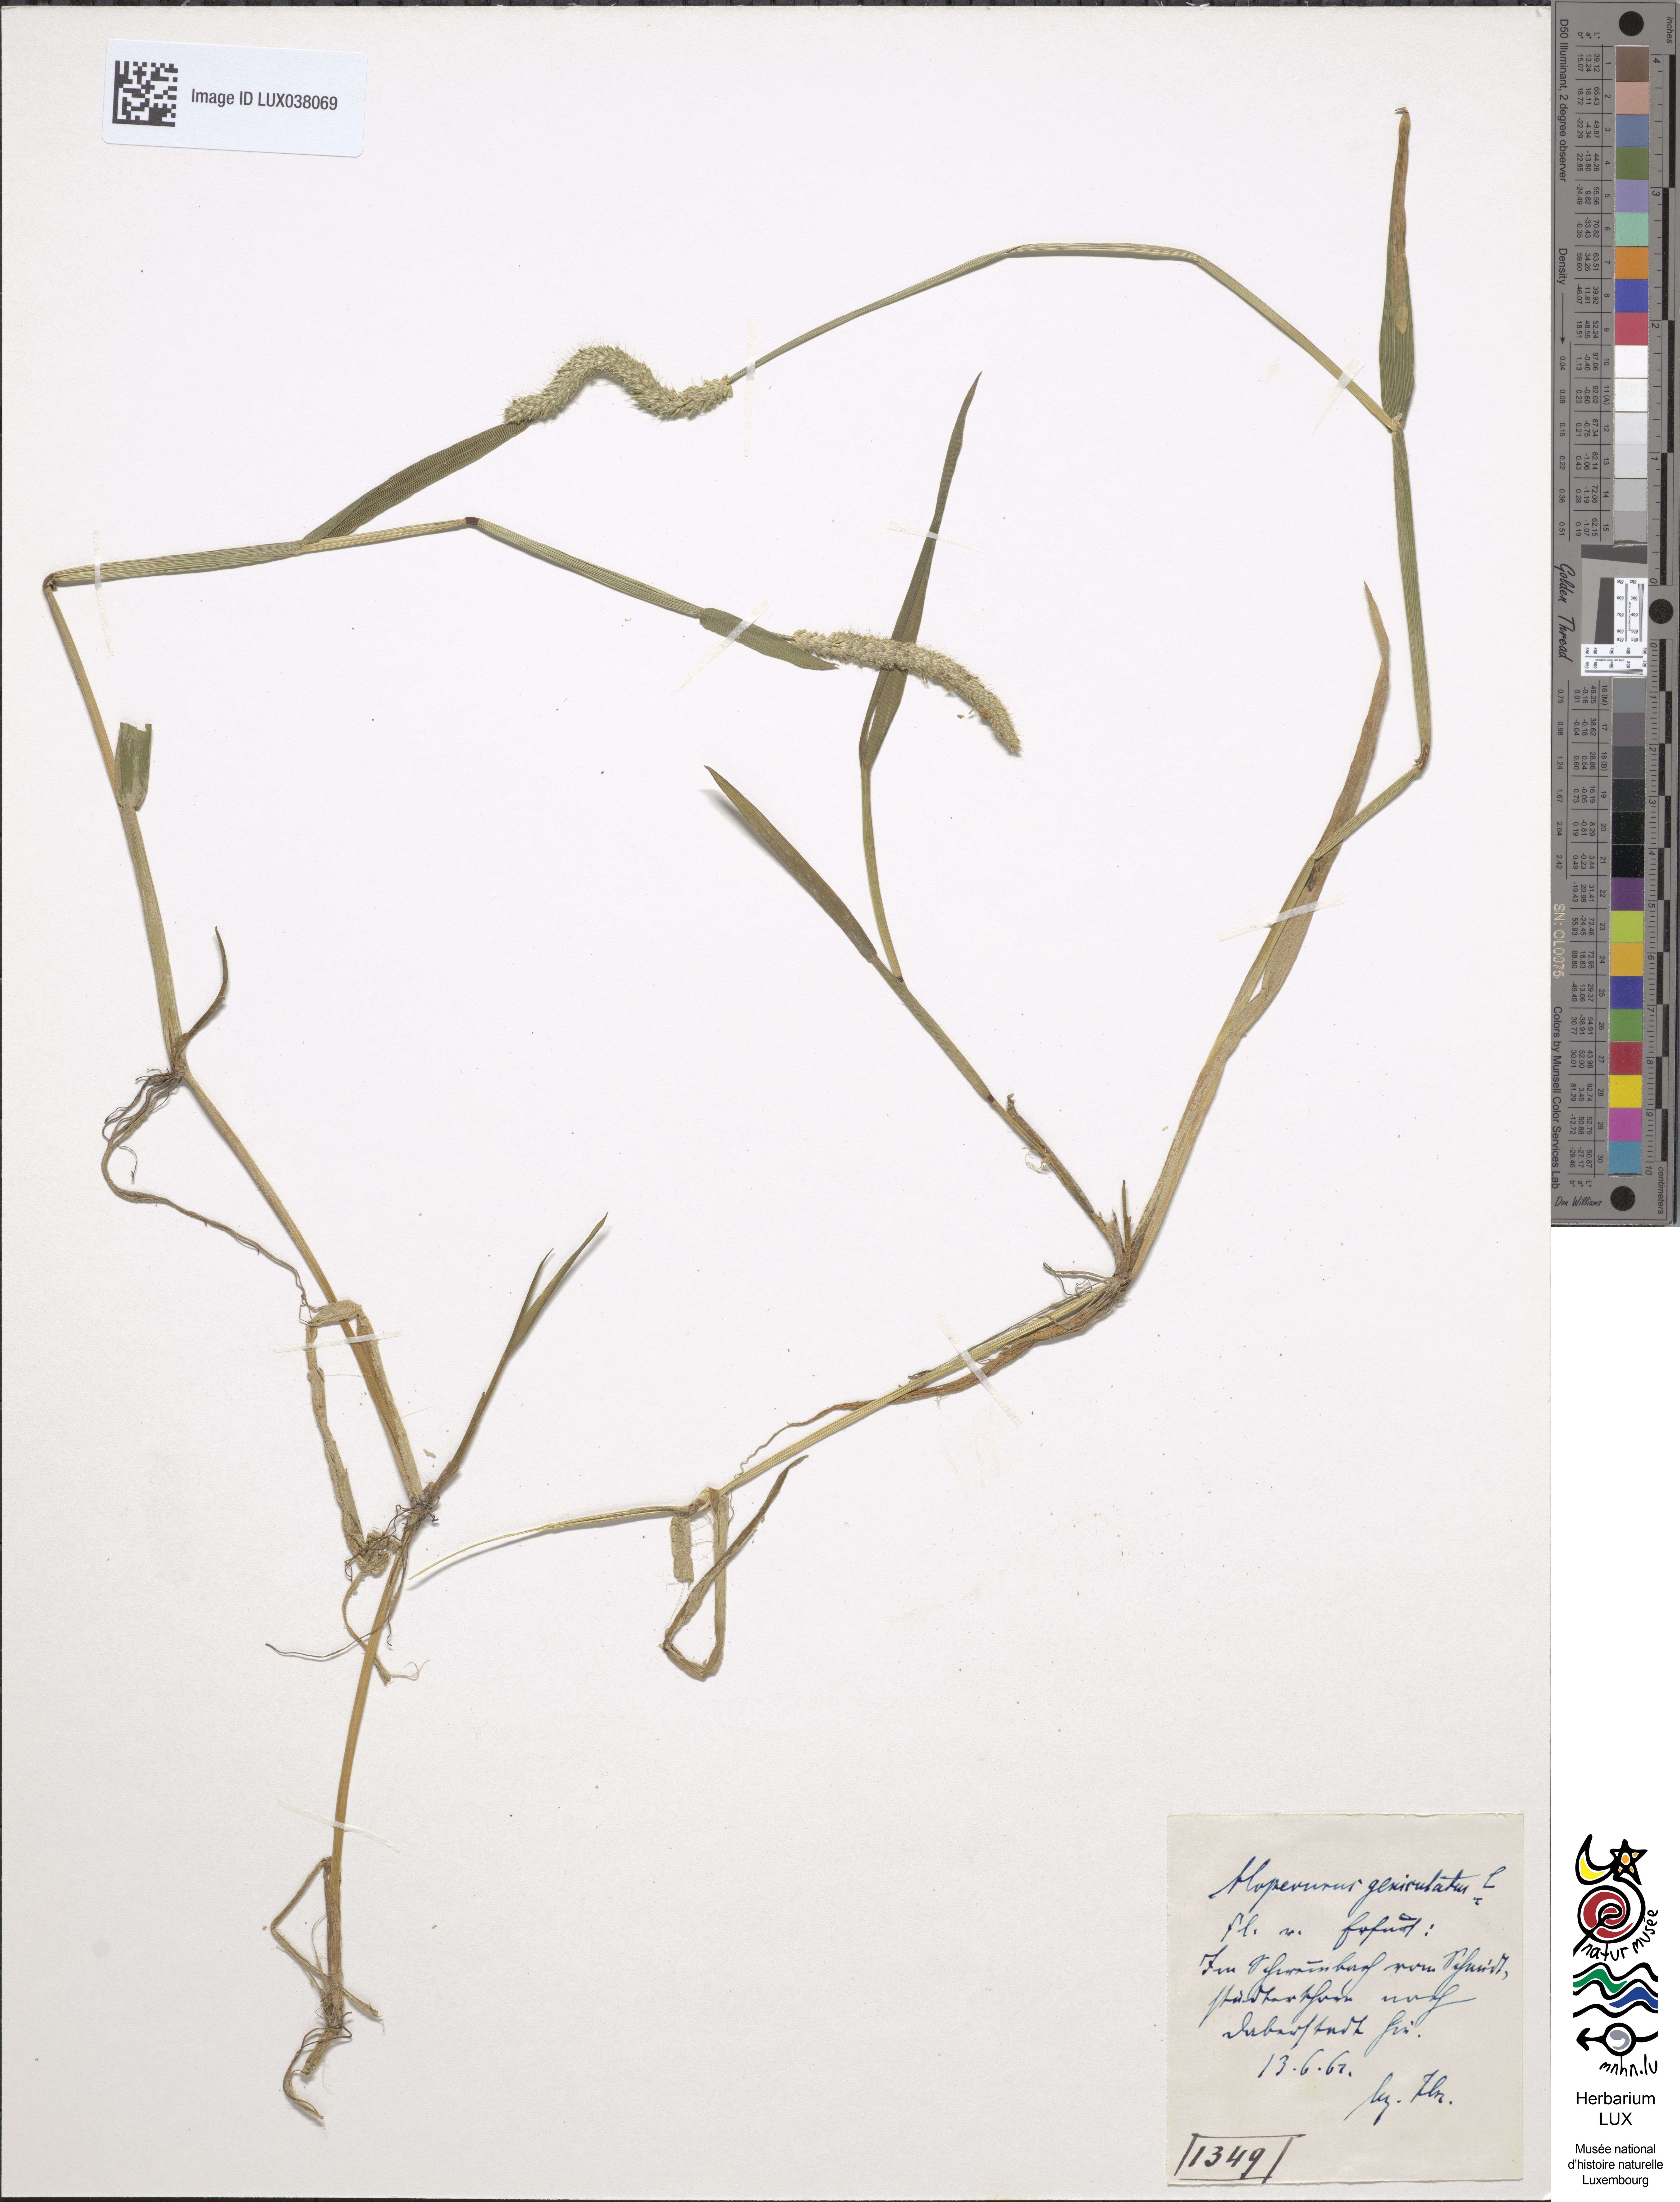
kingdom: Plantae
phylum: Tracheophyta
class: Liliopsida
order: Poales
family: Poaceae
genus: Alopecurus
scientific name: Alopecurus geniculatus
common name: Water foxtail
